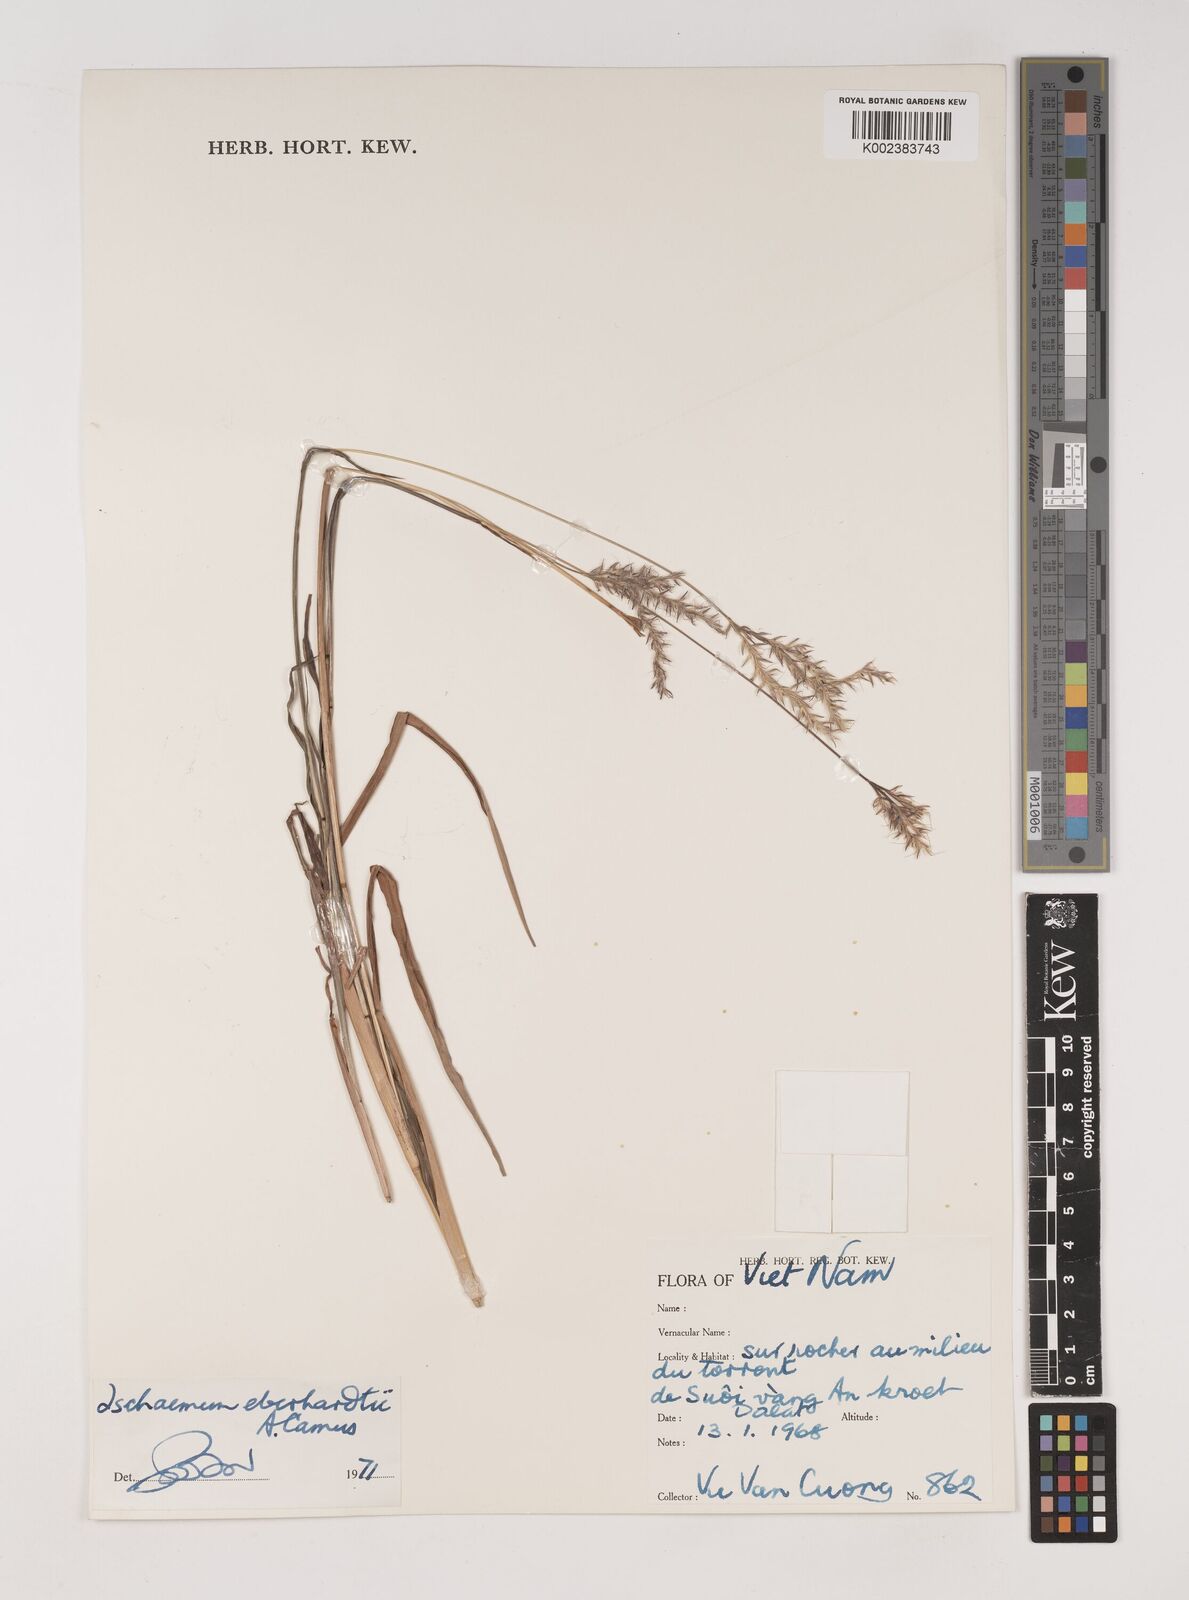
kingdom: Plantae
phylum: Tracheophyta
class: Liliopsida
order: Poales
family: Poaceae
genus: Ischaemum
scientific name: Ischaemum eberhardtii
